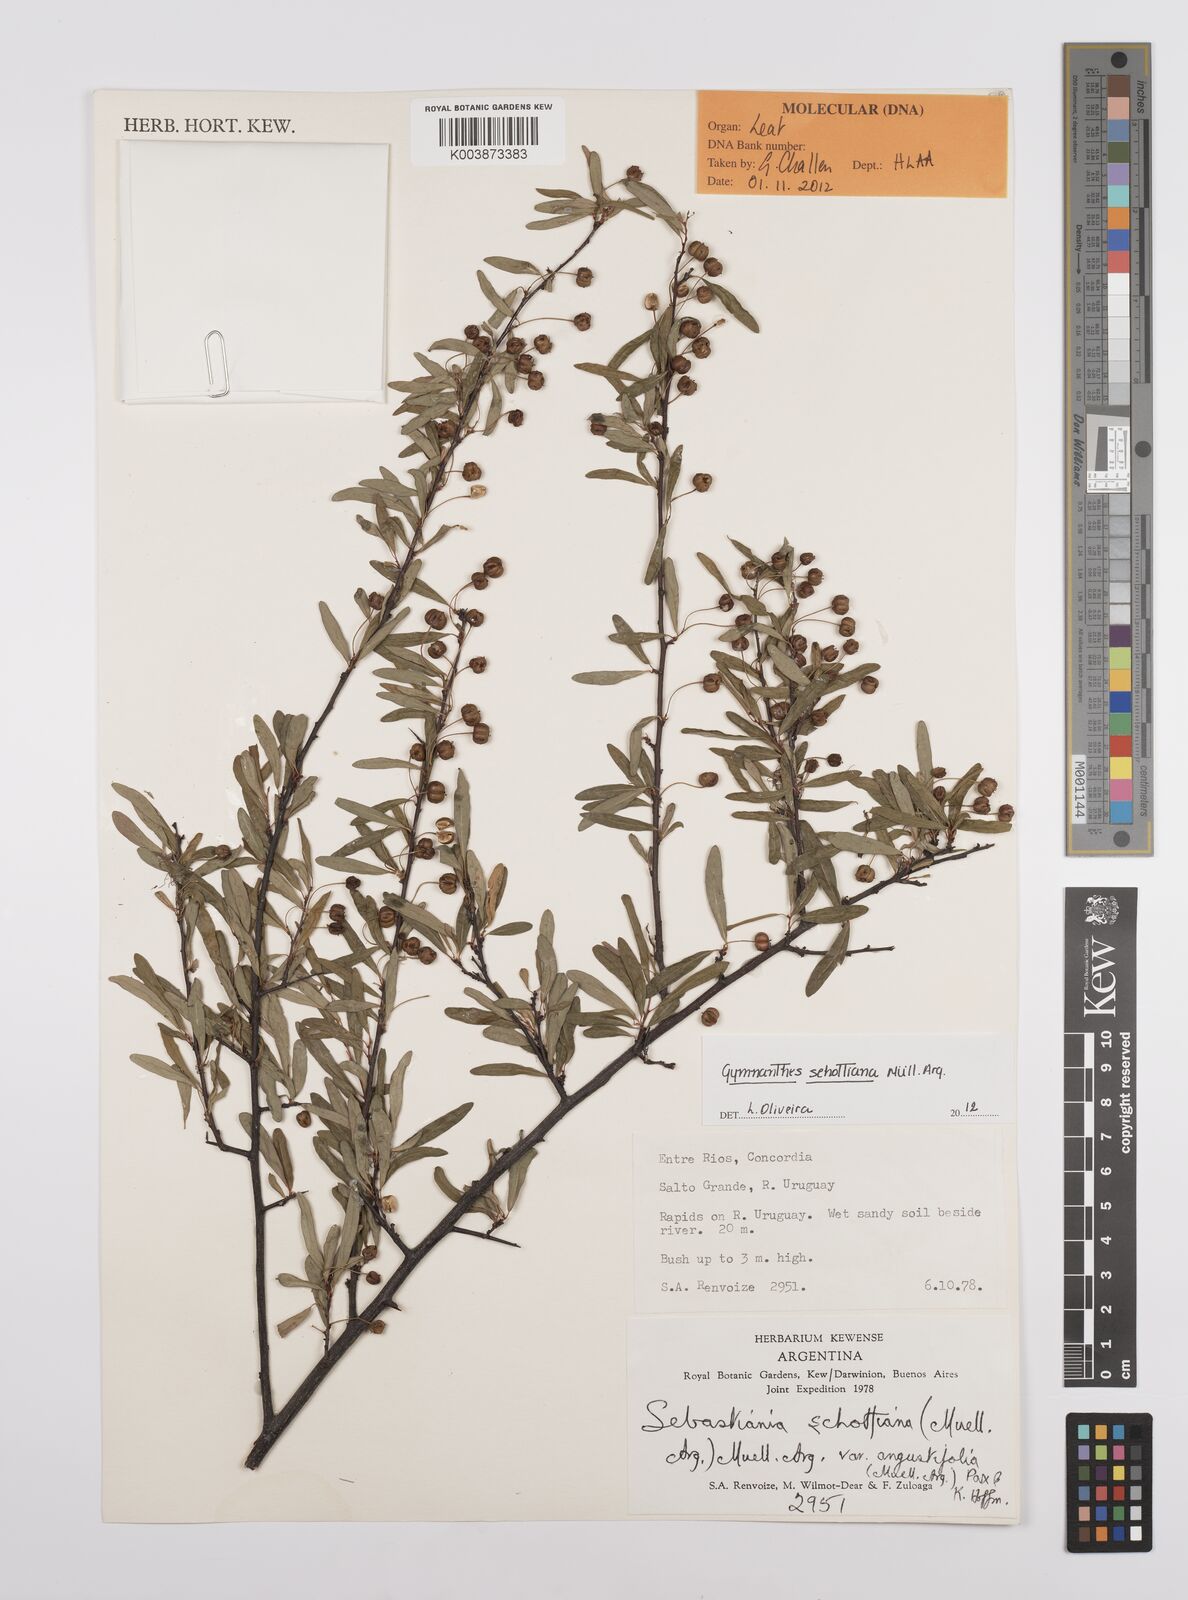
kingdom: Plantae
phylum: Tracheophyta
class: Magnoliopsida
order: Malpighiales
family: Euphorbiaceae
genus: Sebastiania
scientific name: Sebastiania schottiana
